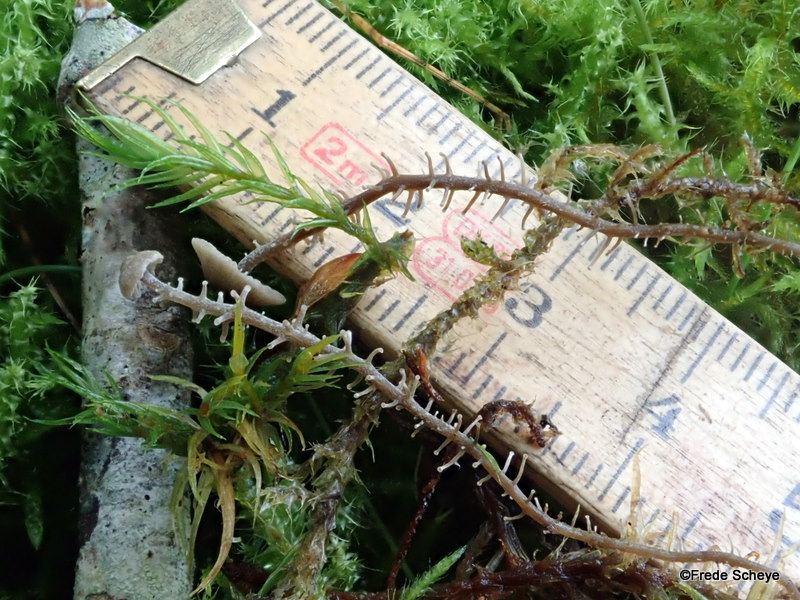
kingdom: Fungi
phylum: Basidiomycota
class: Agaricomycetes
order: Agaricales
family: Tricholomataceae
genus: Dendrocollybia
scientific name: Dendrocollybia racemosa
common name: grenet lighat
